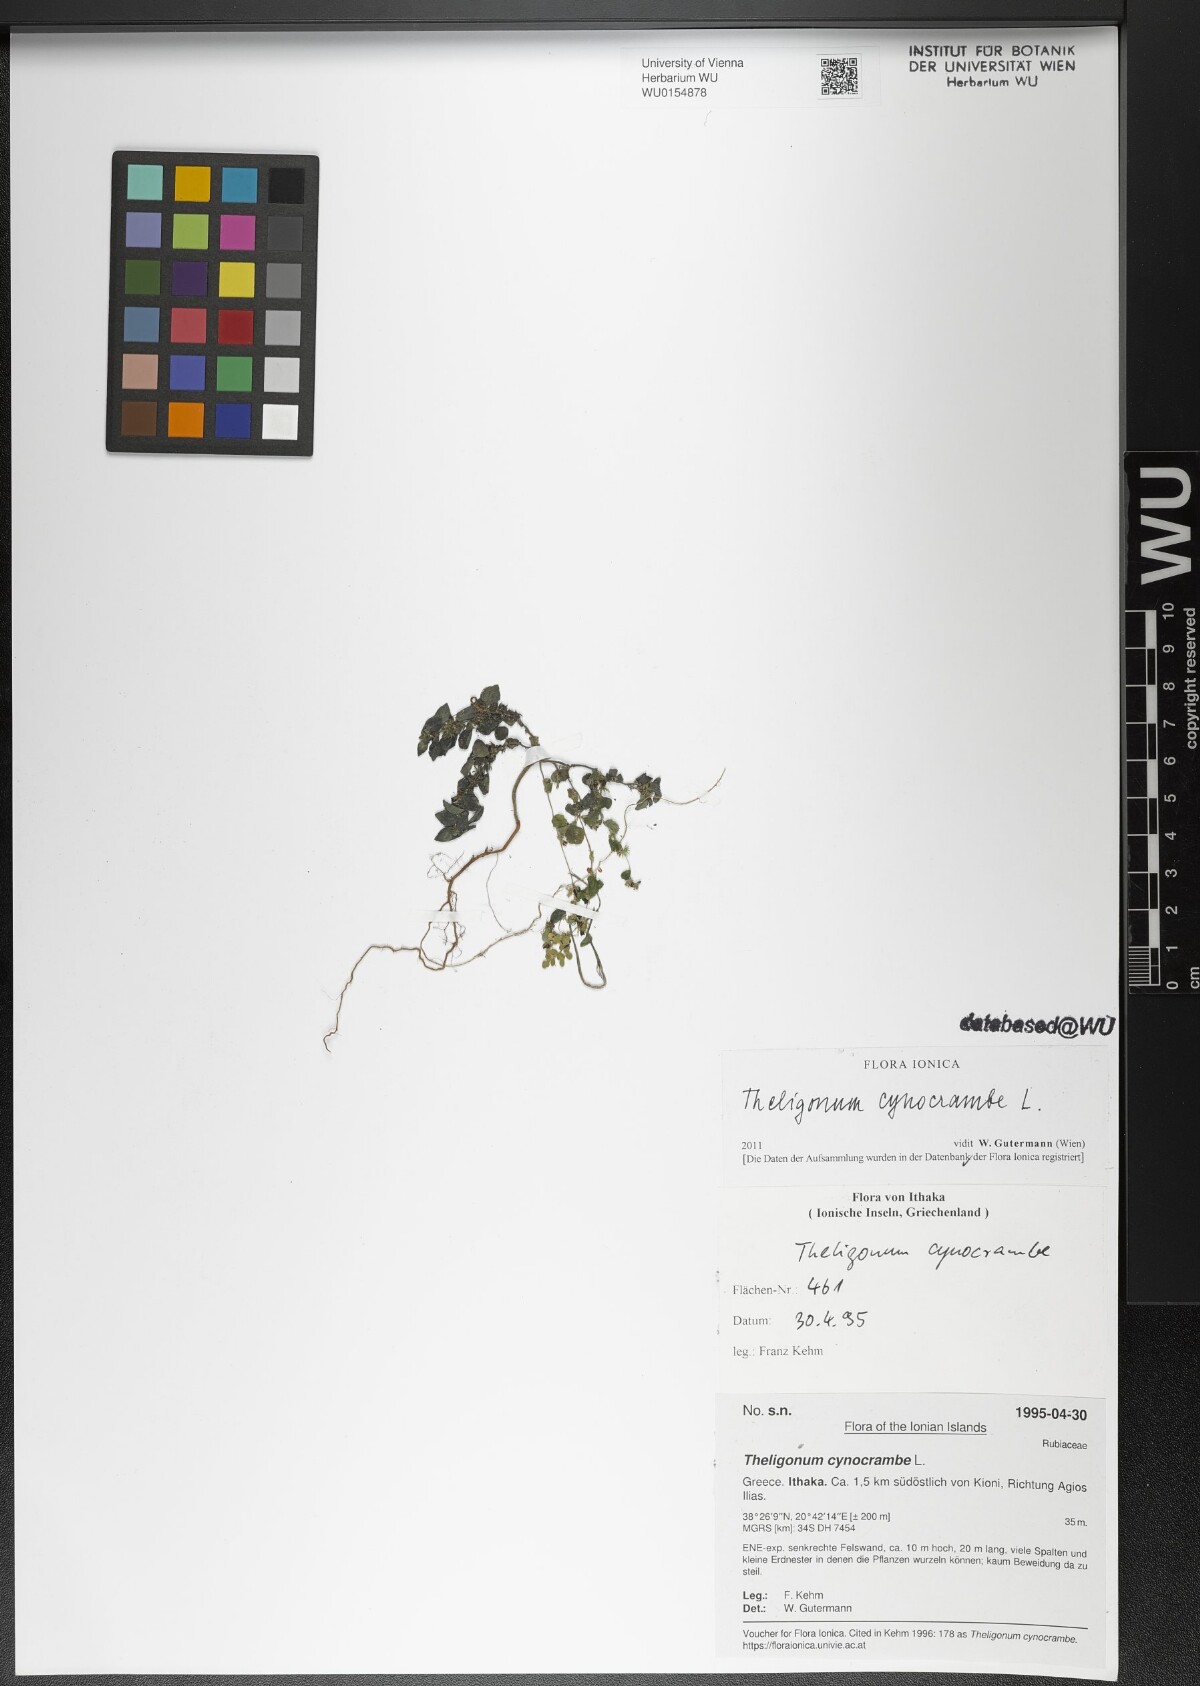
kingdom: Plantae
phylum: Tracheophyta
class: Magnoliopsida
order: Gentianales
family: Rubiaceae
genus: Theligonum
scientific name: Theligonum cynocrambe
